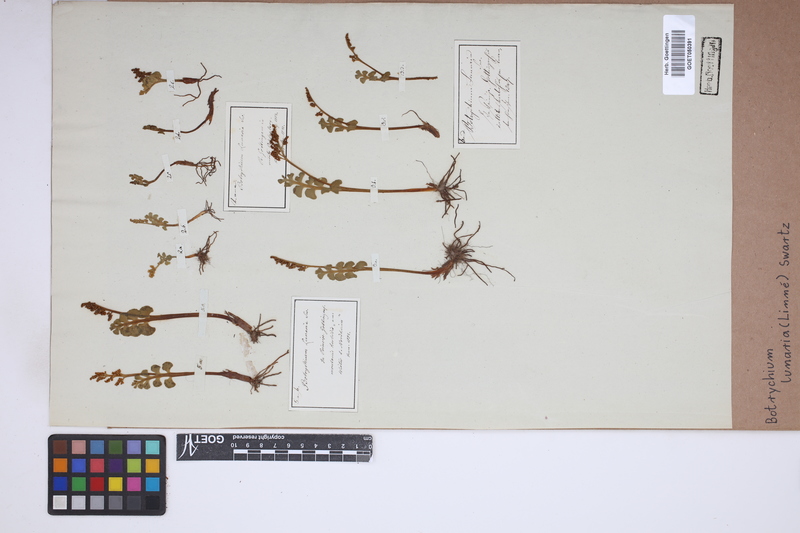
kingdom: Plantae
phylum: Tracheophyta
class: Polypodiopsida
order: Ophioglossales
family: Ophioglossaceae
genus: Botrychium
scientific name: Botrychium lunaria
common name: Moonwort
